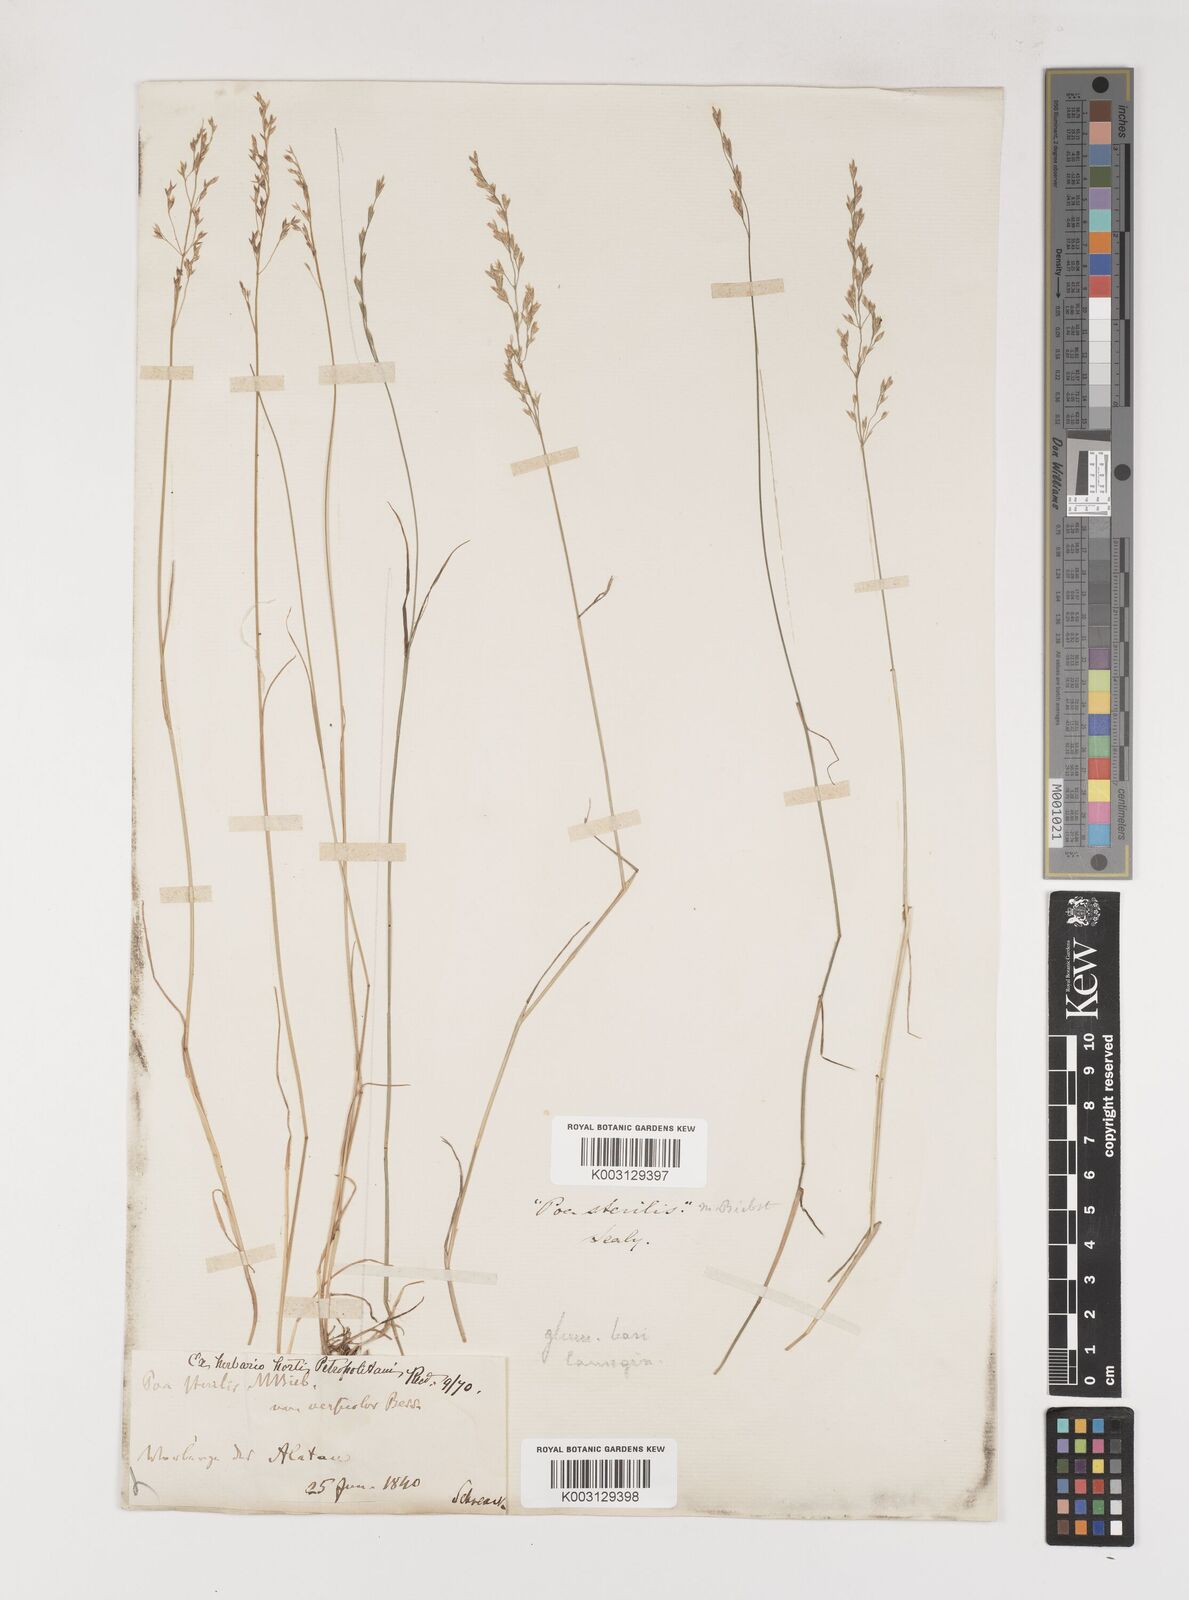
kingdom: Plantae
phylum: Tracheophyta
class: Liliopsida
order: Poales
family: Poaceae
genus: Poa
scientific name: Poa sterilis
